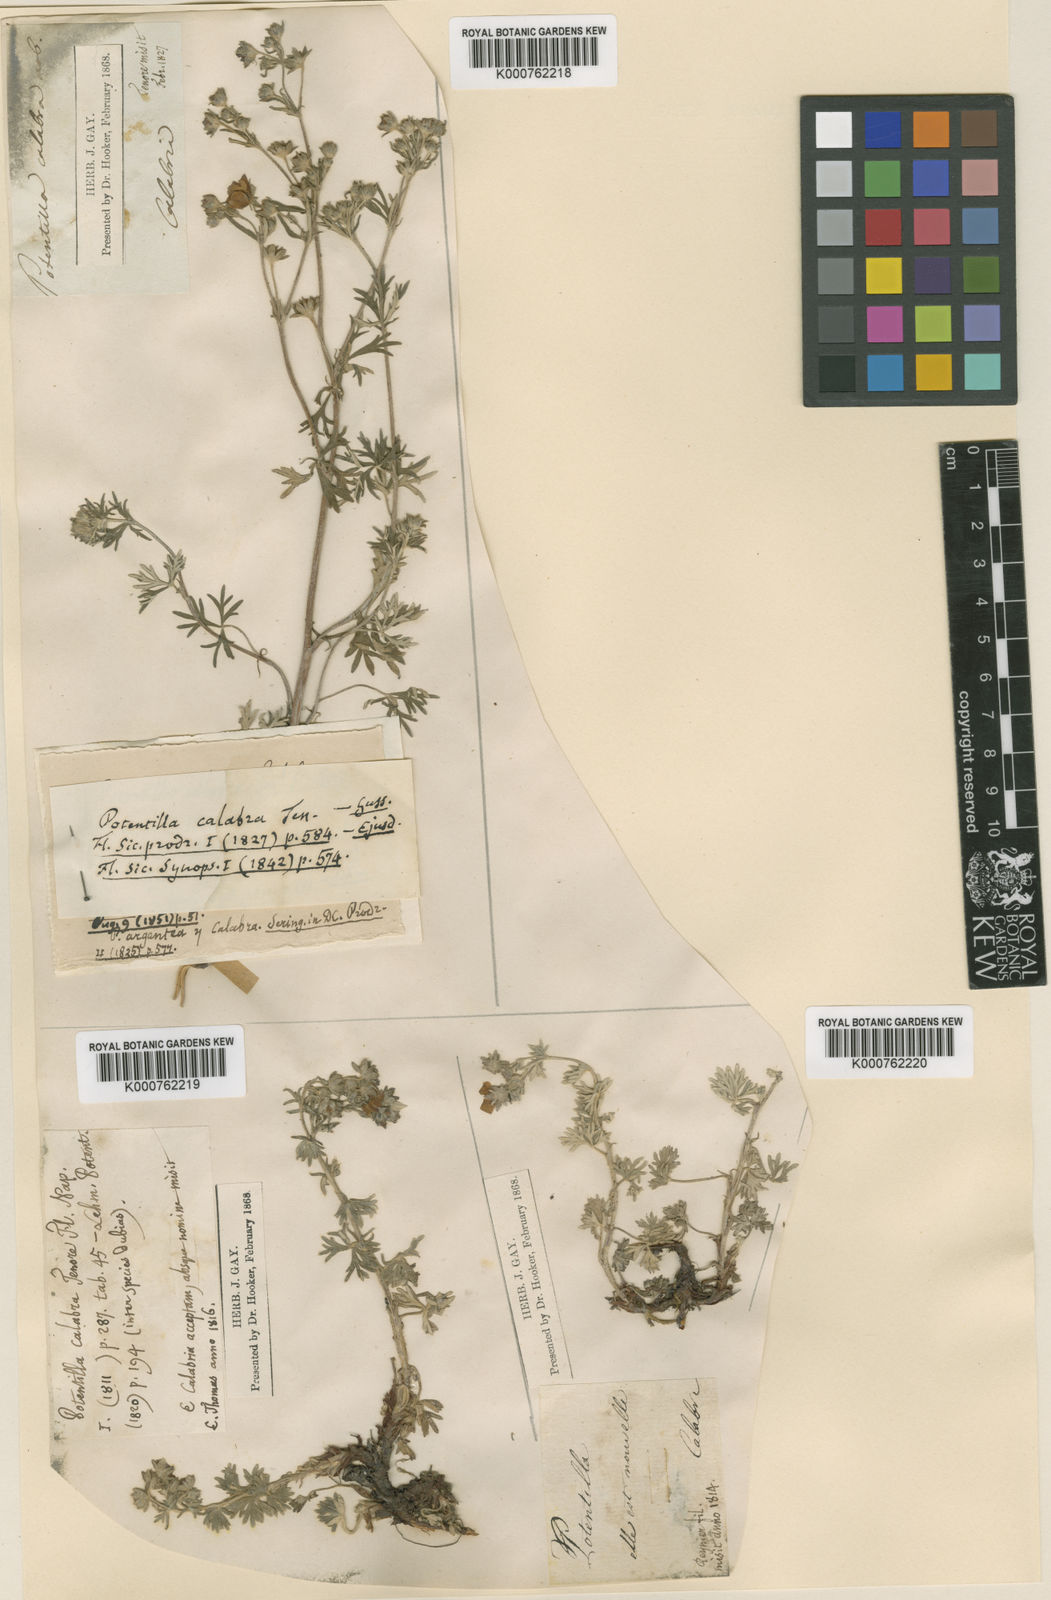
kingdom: Plantae
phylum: Tracheophyta
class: Magnoliopsida
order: Rosales
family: Rosaceae
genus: Potentilla
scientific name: Potentilla argentea
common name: Hoary cinquefoil
